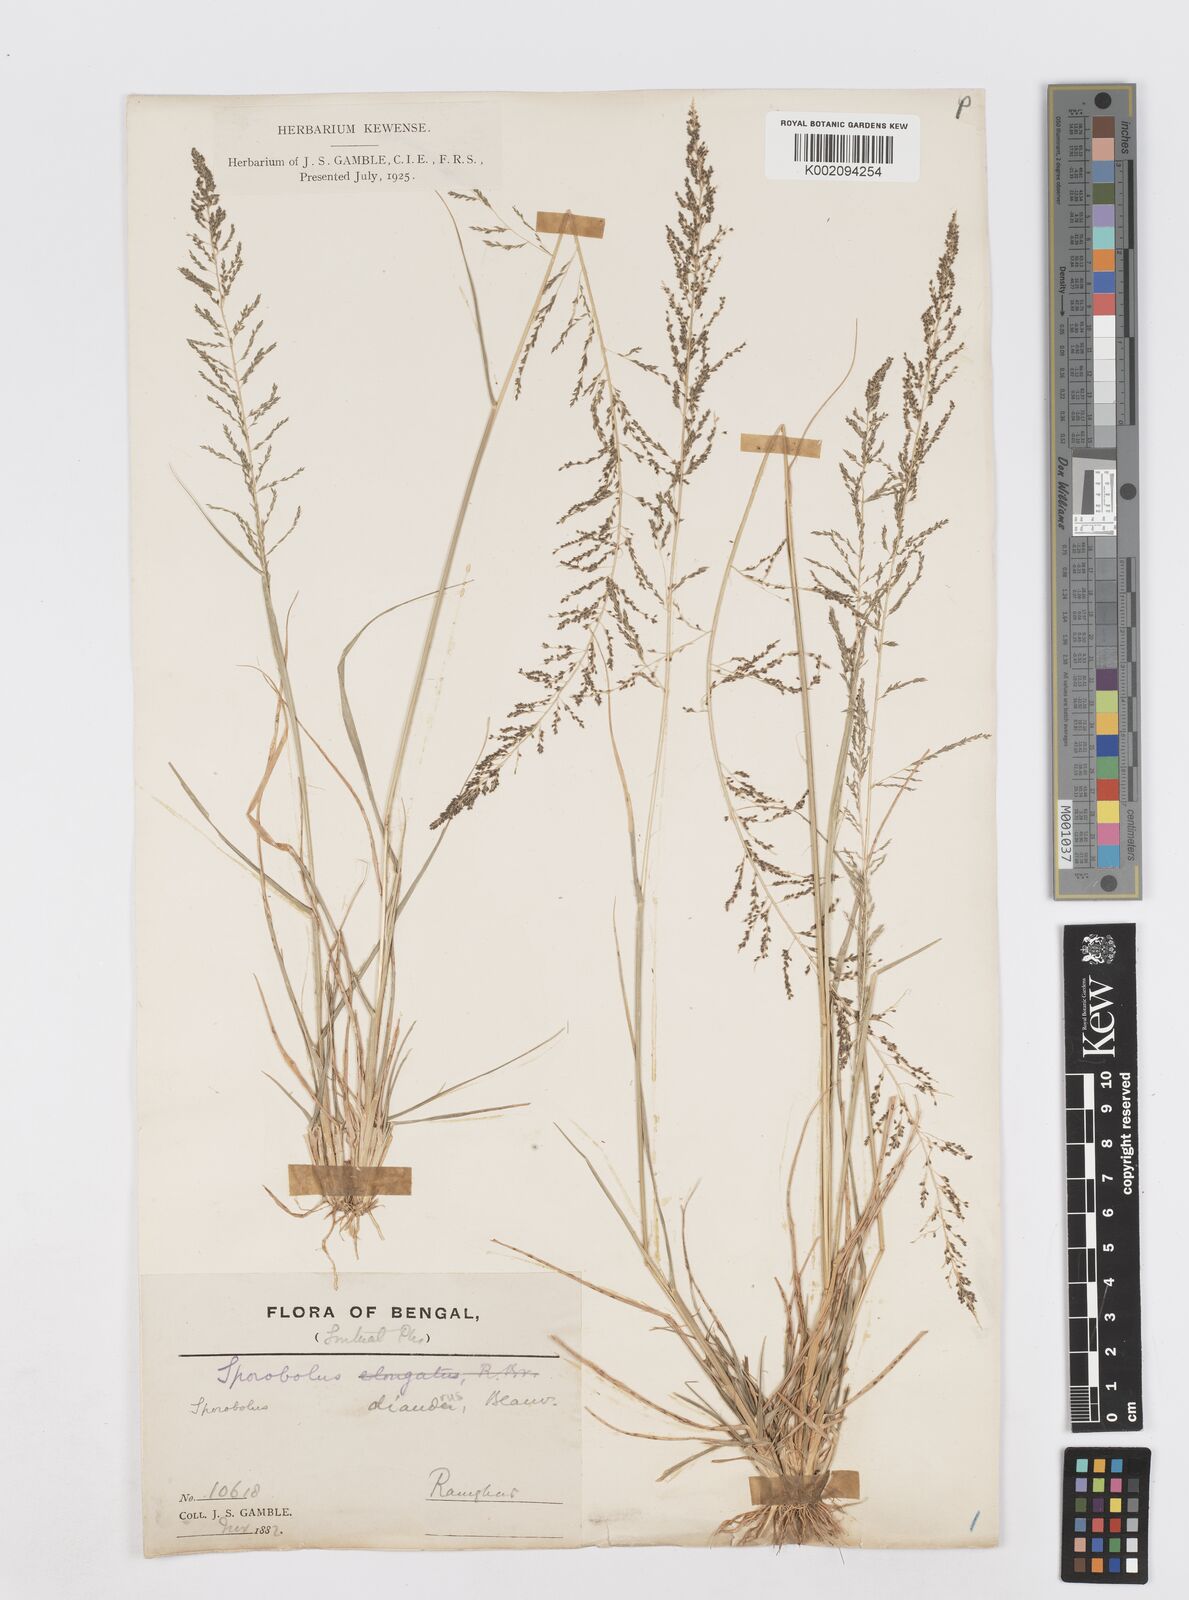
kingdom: Plantae
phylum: Tracheophyta
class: Liliopsida
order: Poales
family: Poaceae
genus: Sporobolus
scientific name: Sporobolus diandrus
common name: Tussock dropseed
